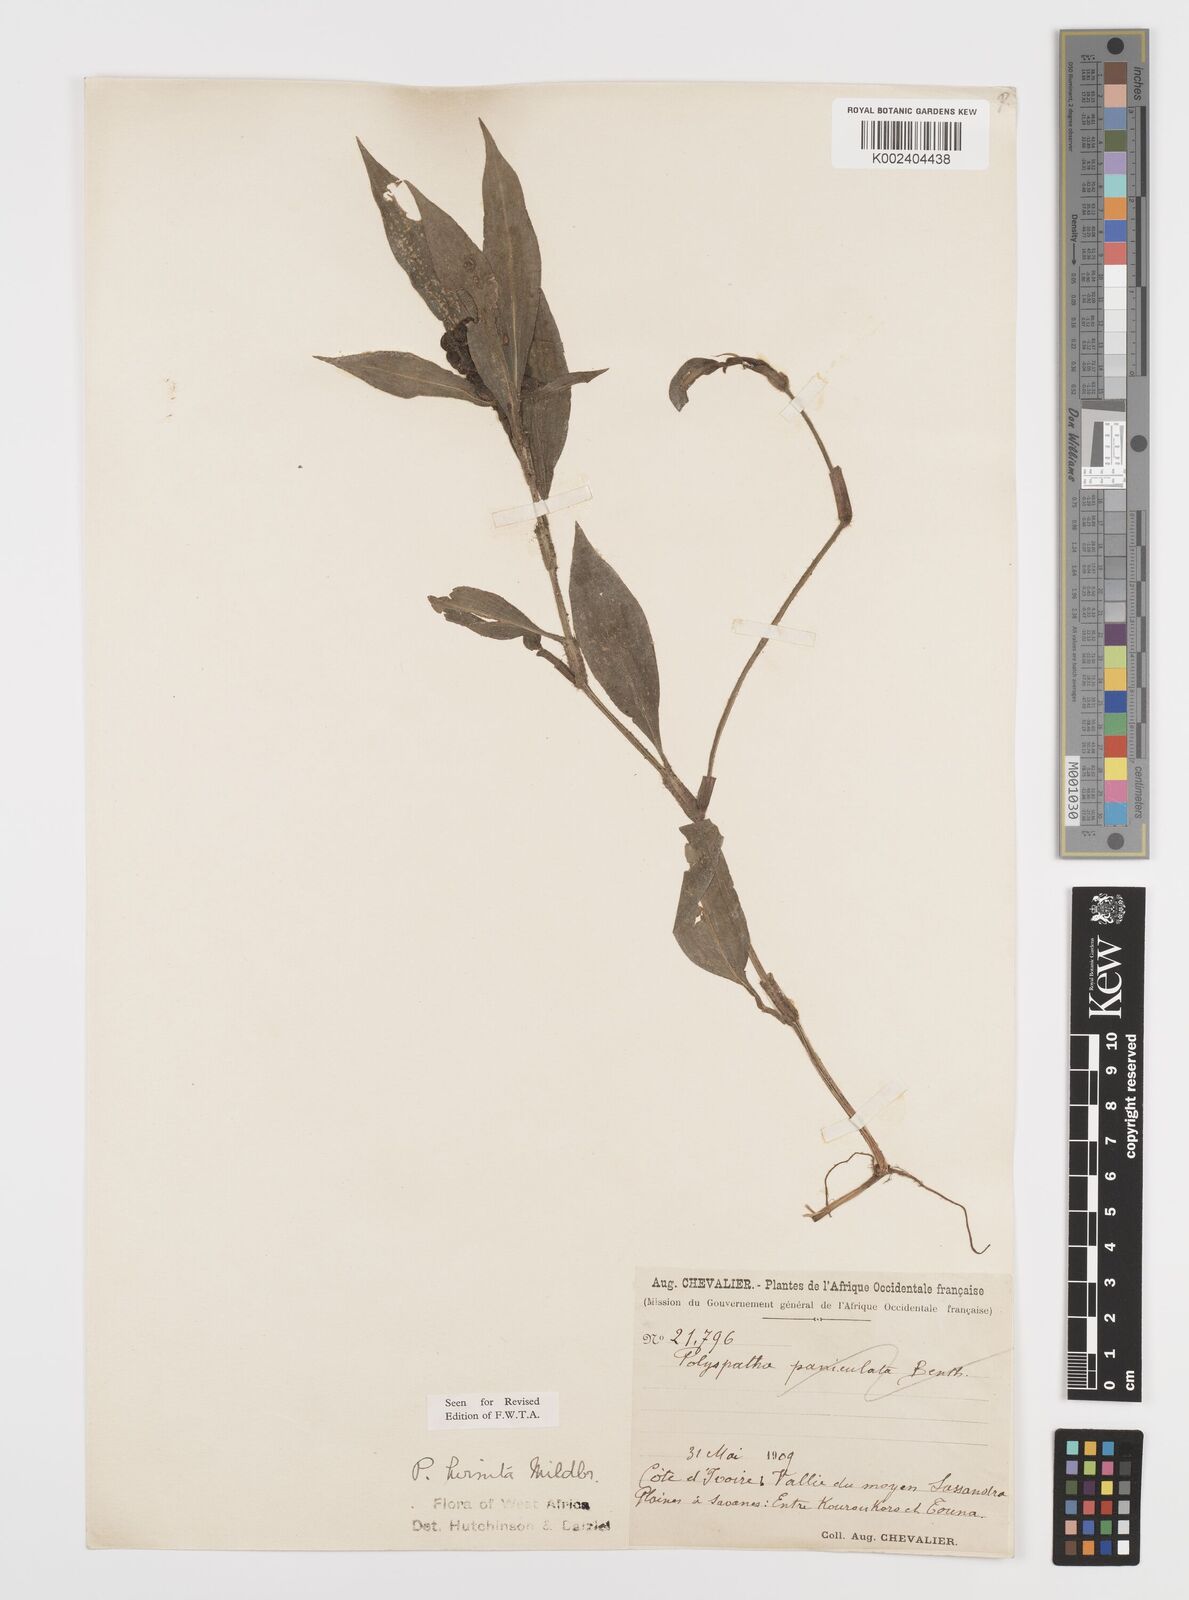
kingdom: Plantae
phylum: Tracheophyta
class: Liliopsida
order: Commelinales
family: Commelinaceae
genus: Polyspatha
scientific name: Polyspatha hirsuta
